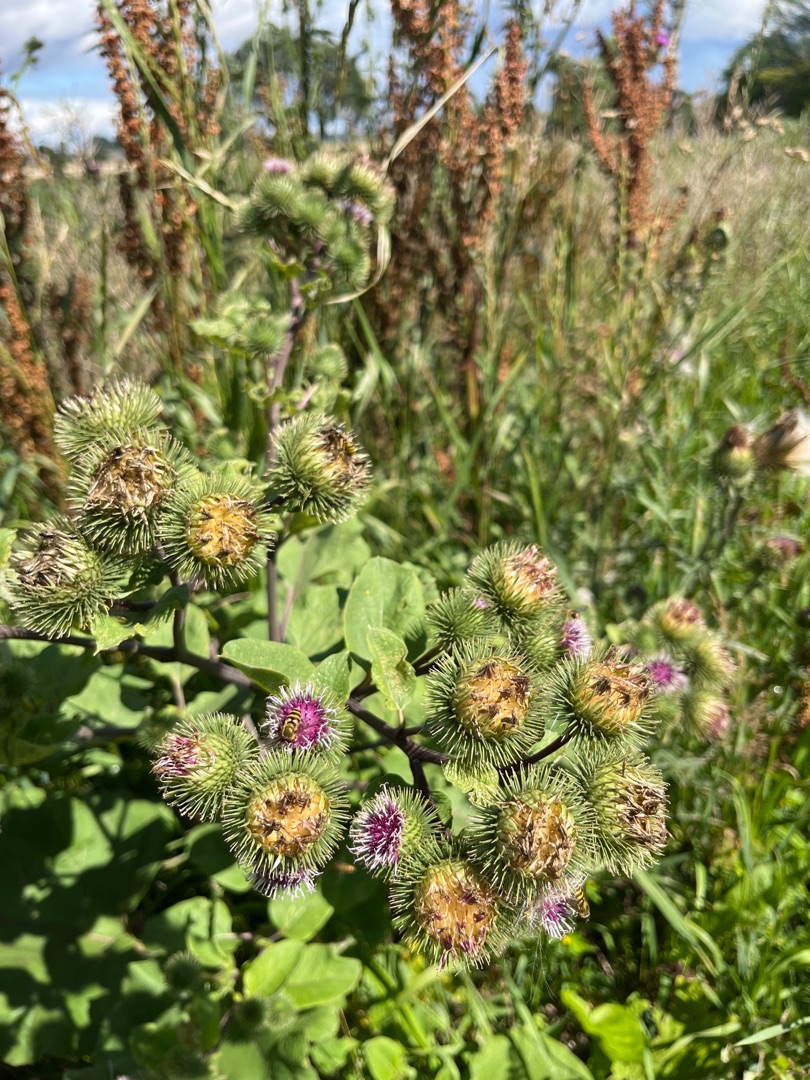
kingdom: Plantae
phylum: Tracheophyta
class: Magnoliopsida
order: Asterales
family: Asteraceae
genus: Arctium
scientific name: Arctium lappa
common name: Glat burre
